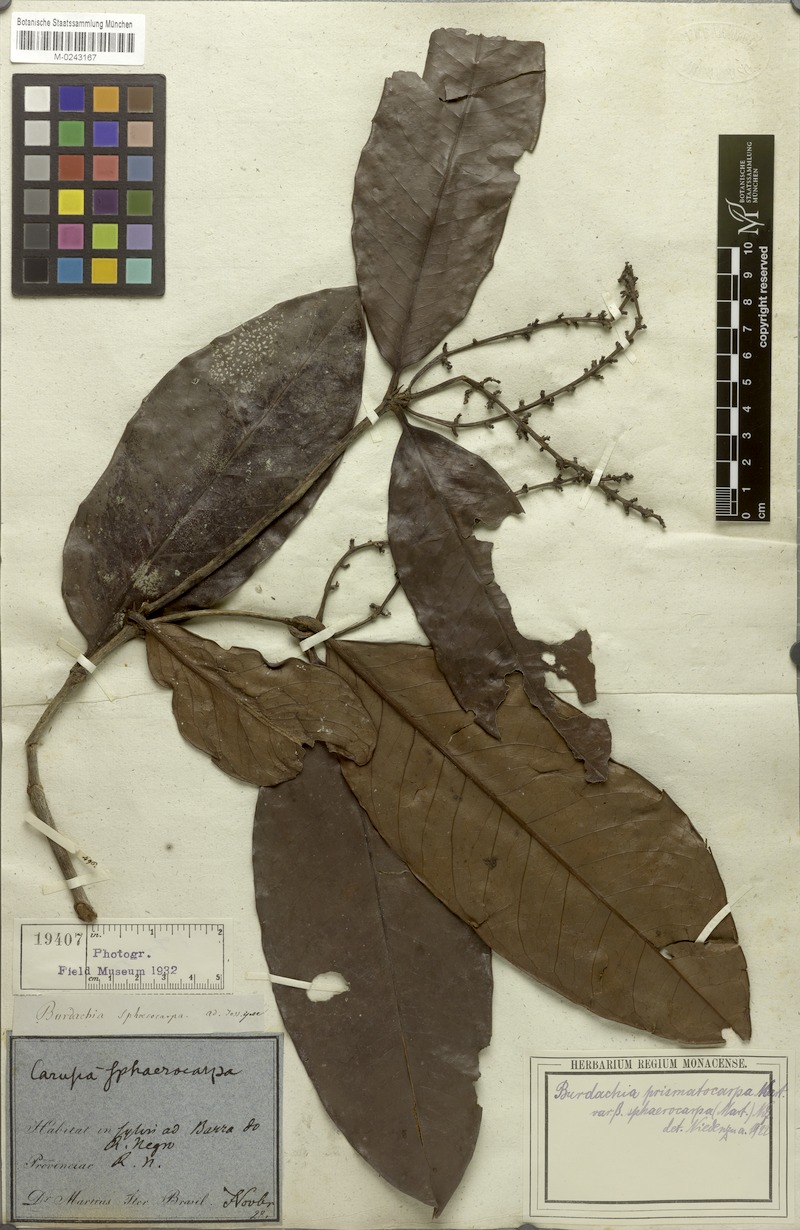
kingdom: Plantae
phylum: Tracheophyta
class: Magnoliopsida
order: Malpighiales
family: Malpighiaceae
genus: Burdachia
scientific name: Burdachia sphaerocarpa
